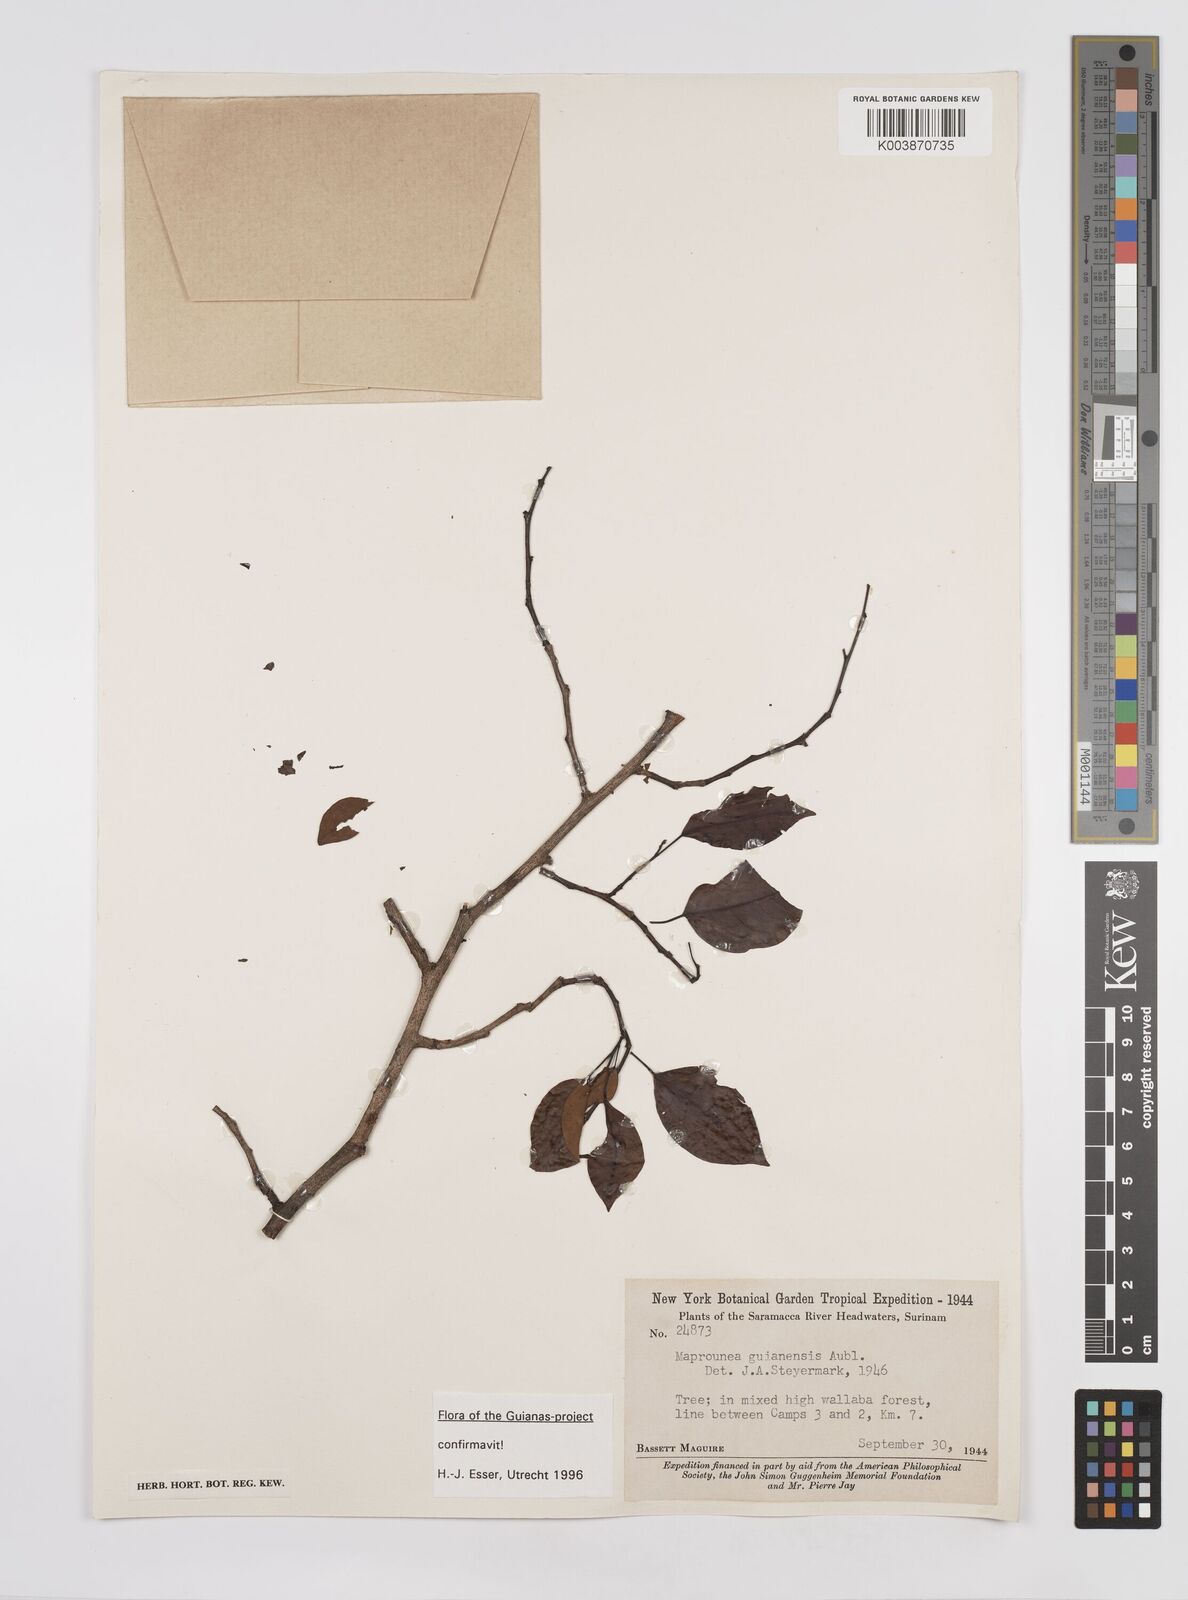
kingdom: Plantae
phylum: Tracheophyta
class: Magnoliopsida
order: Malpighiales
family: Euphorbiaceae
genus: Maprounea
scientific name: Maprounea guianensis
